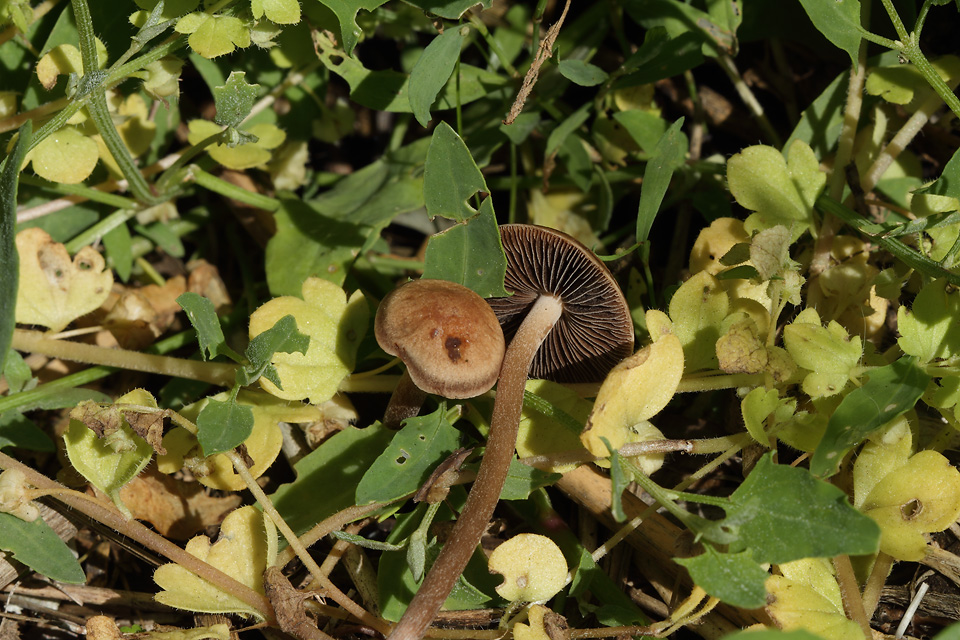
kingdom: Fungi
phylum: Basidiomycota
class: Agaricomycetes
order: Agaricales
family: Bolbitiaceae
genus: Panaeolus
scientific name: Panaeolus cinctulus
